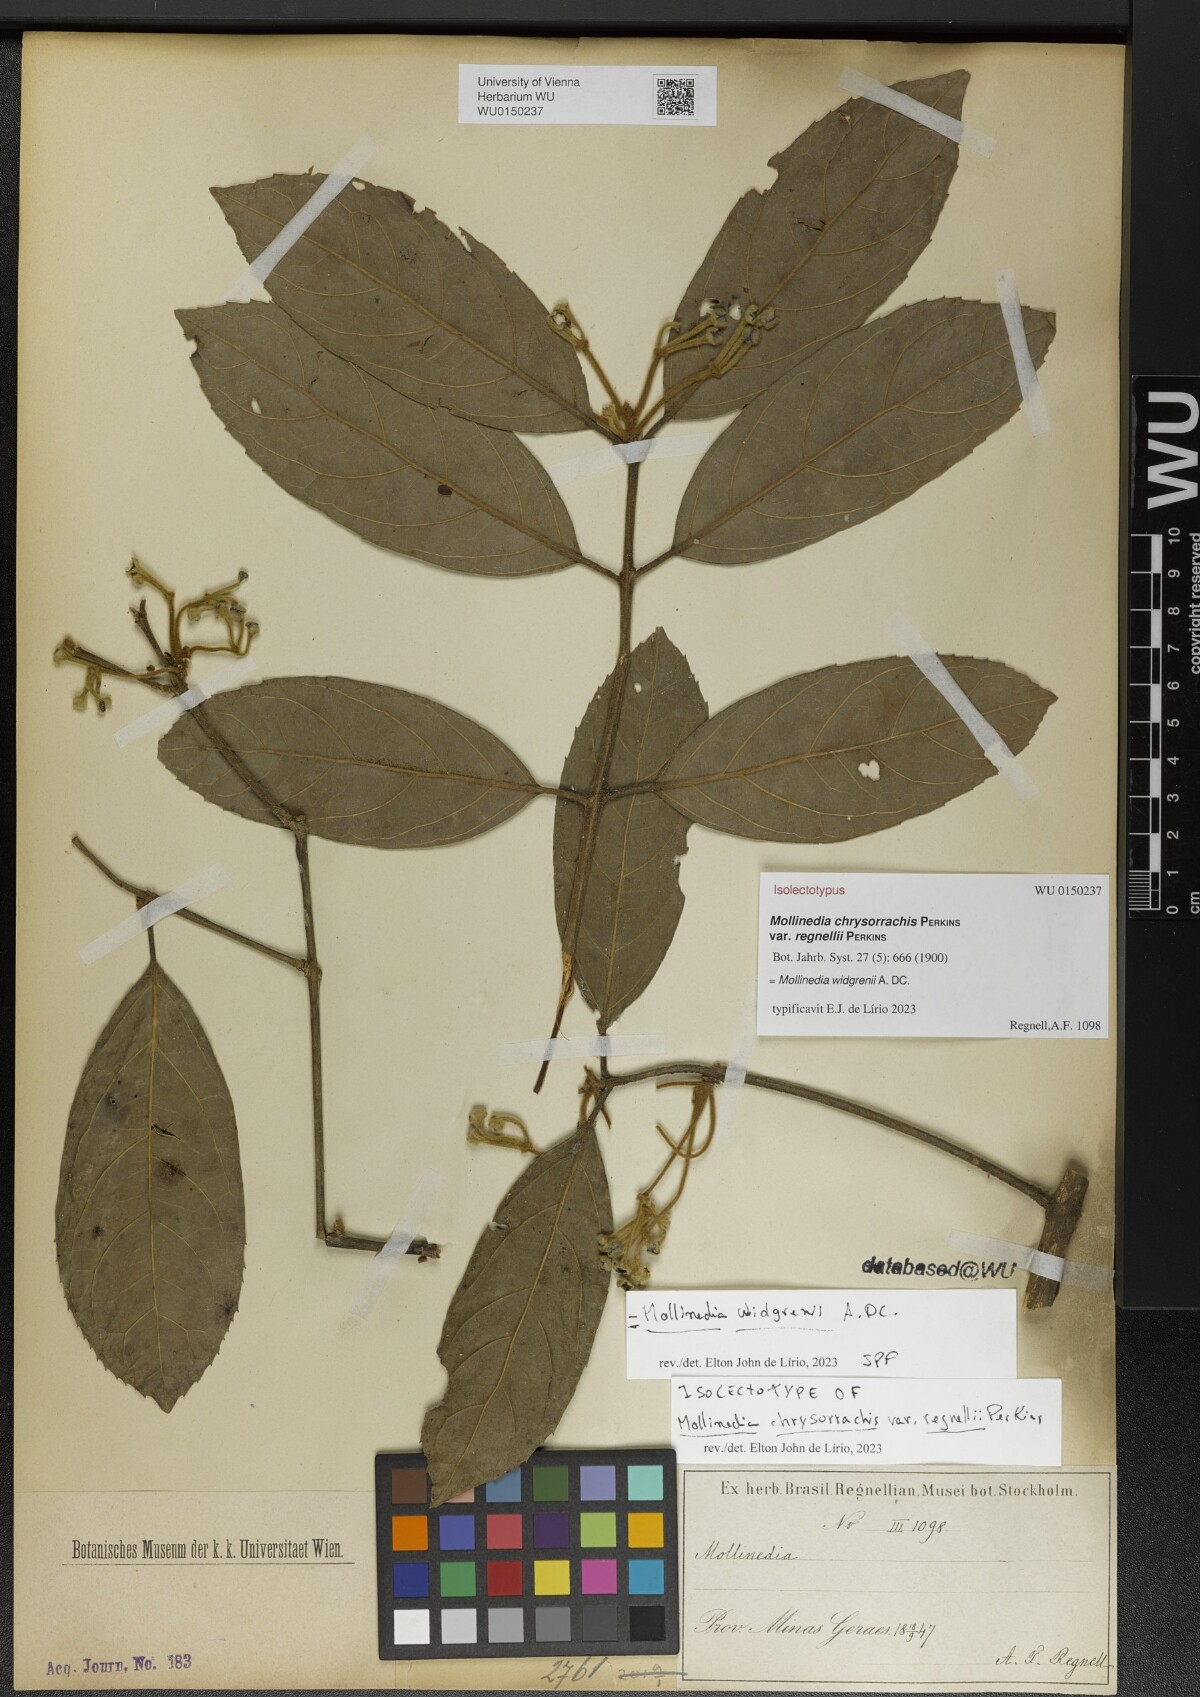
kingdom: Plantae
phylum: Tracheophyta
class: Magnoliopsida
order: Laurales
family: Monimiaceae
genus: Mollinedia
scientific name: Mollinedia widgrenii
